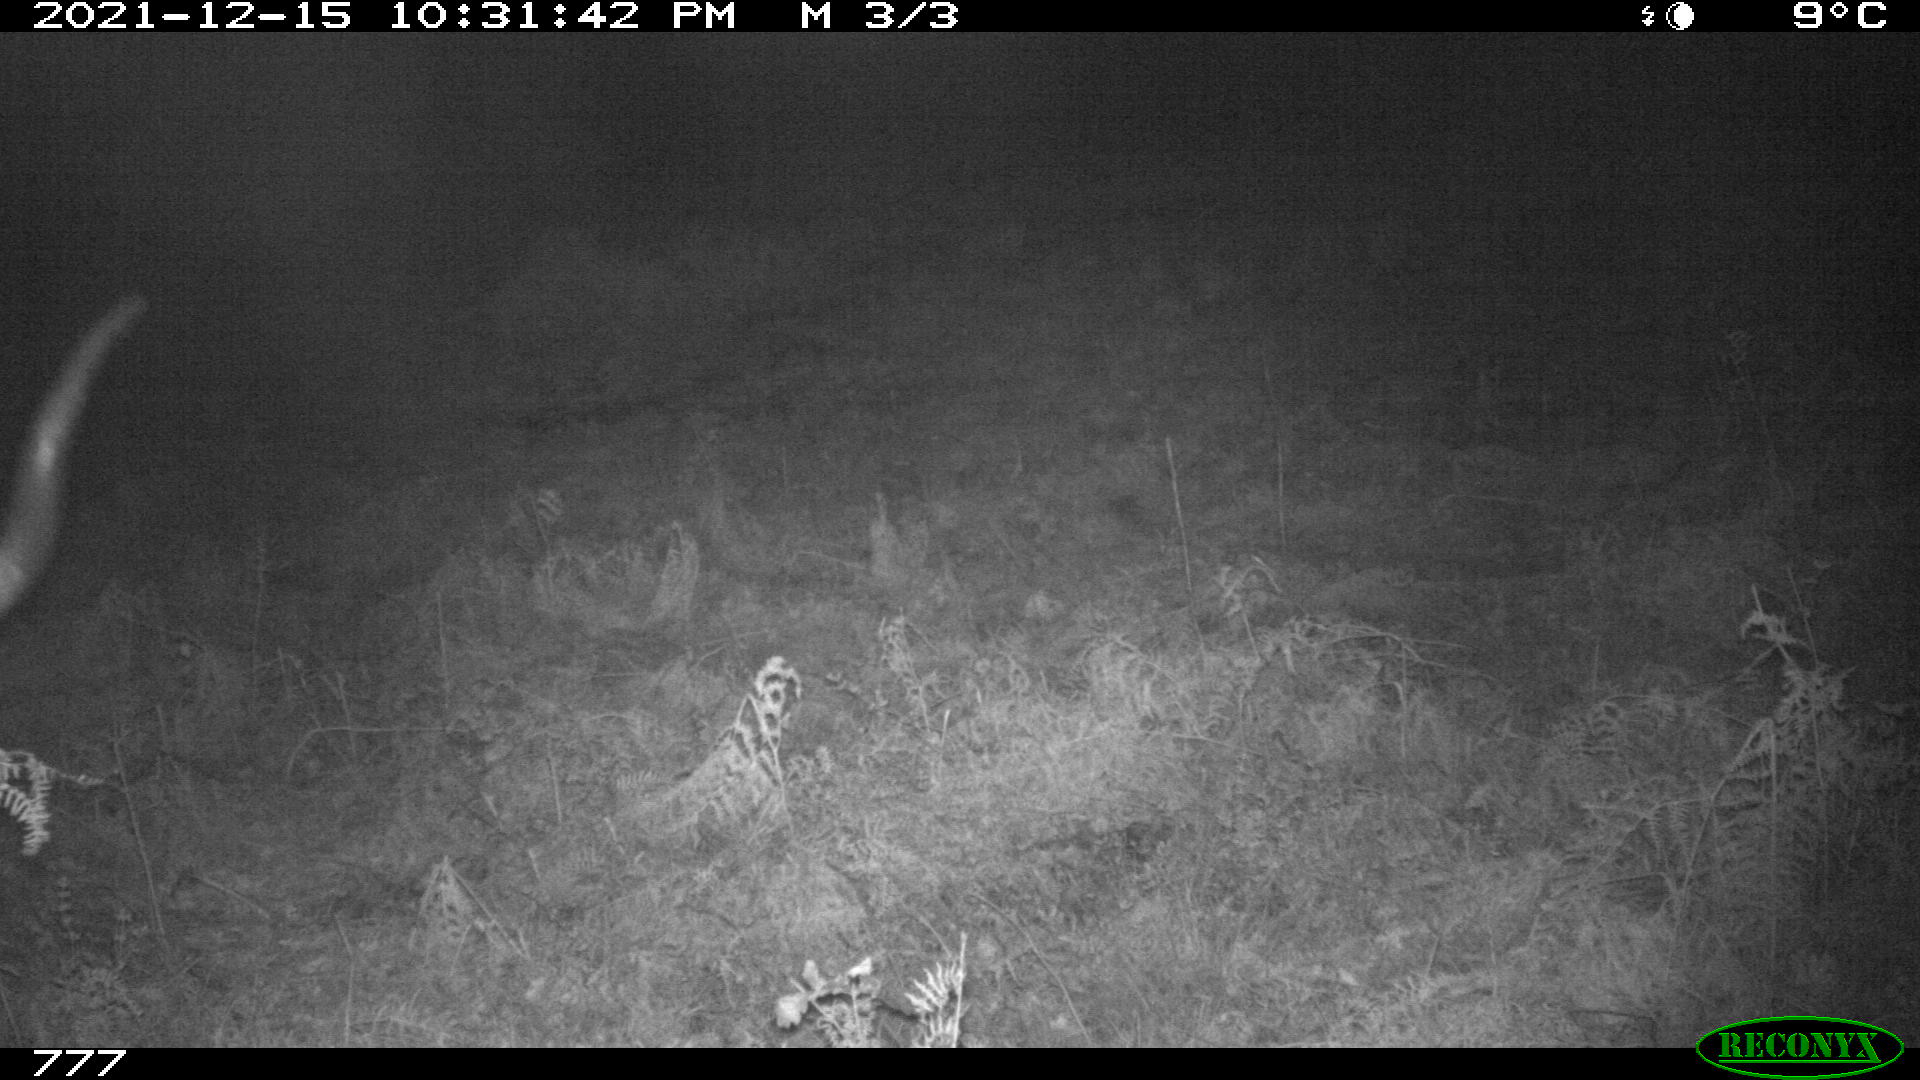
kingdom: Animalia
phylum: Chordata
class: Mammalia
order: Artiodactyla
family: Bovidae
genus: Bos
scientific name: Bos taurus
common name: Domesticated cattle
